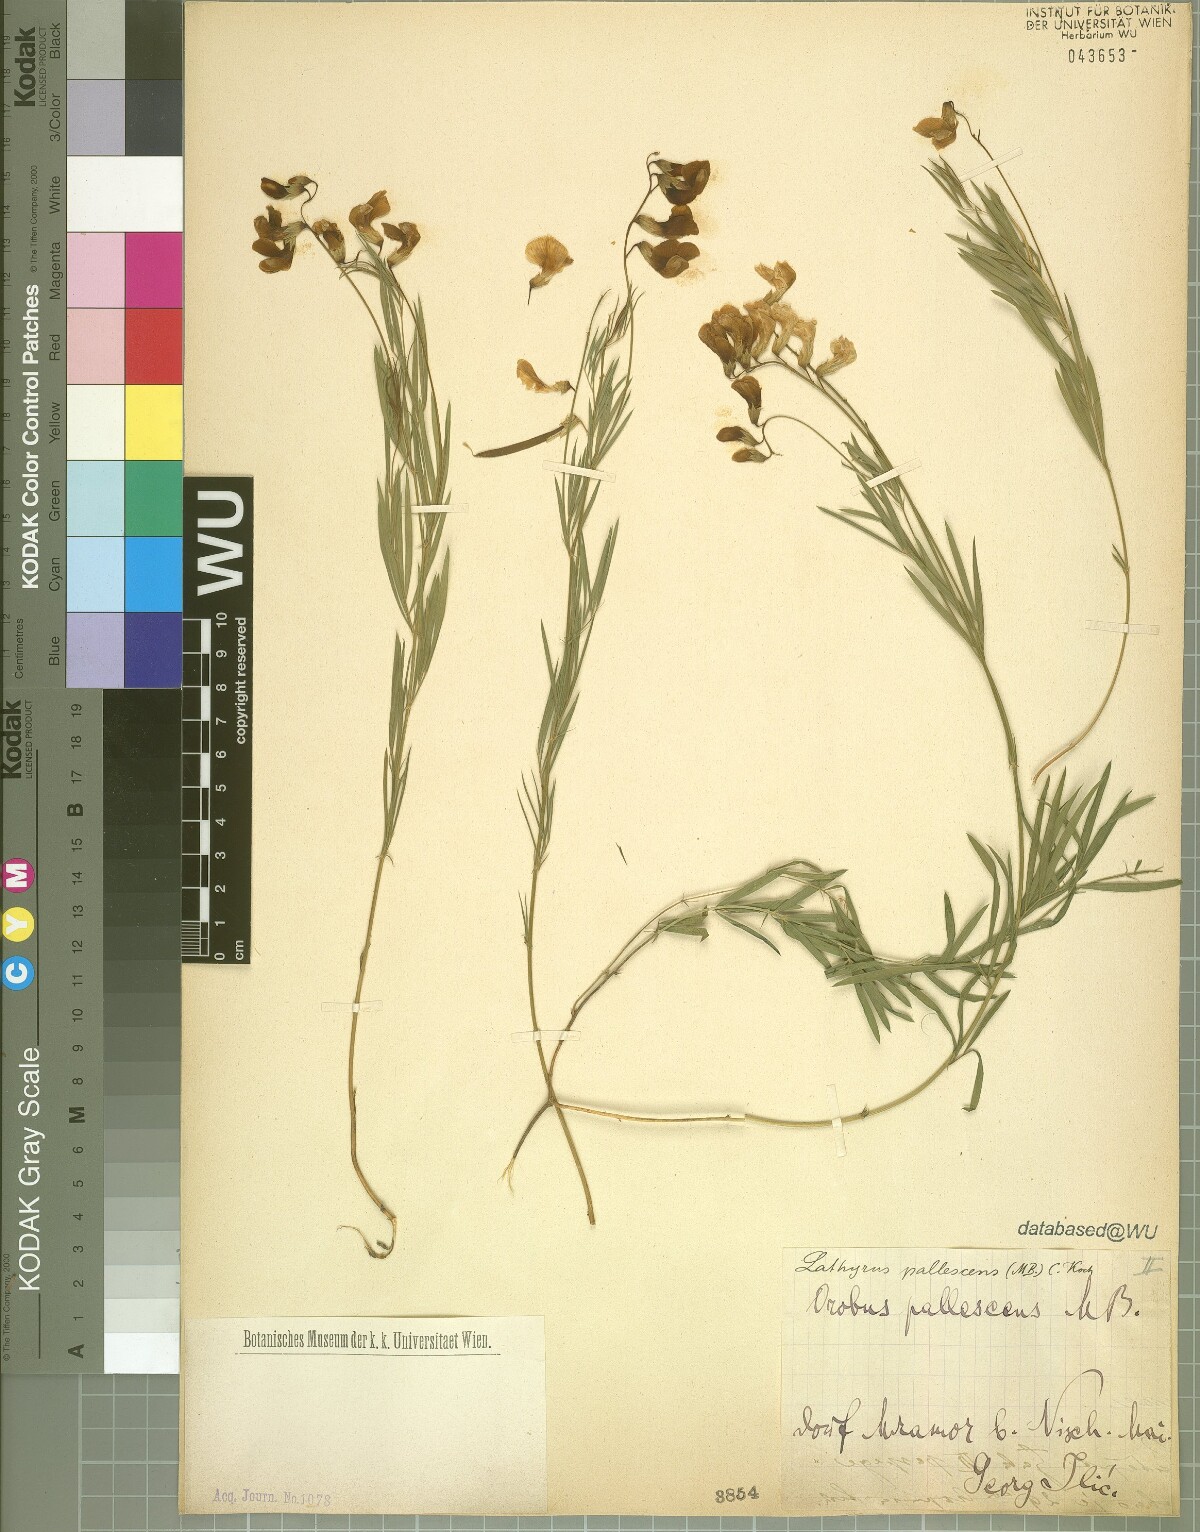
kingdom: Plantae
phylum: Tracheophyta
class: Magnoliopsida
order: Fabales
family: Fabaceae
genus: Lathyrus
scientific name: Lathyrus pallescens
